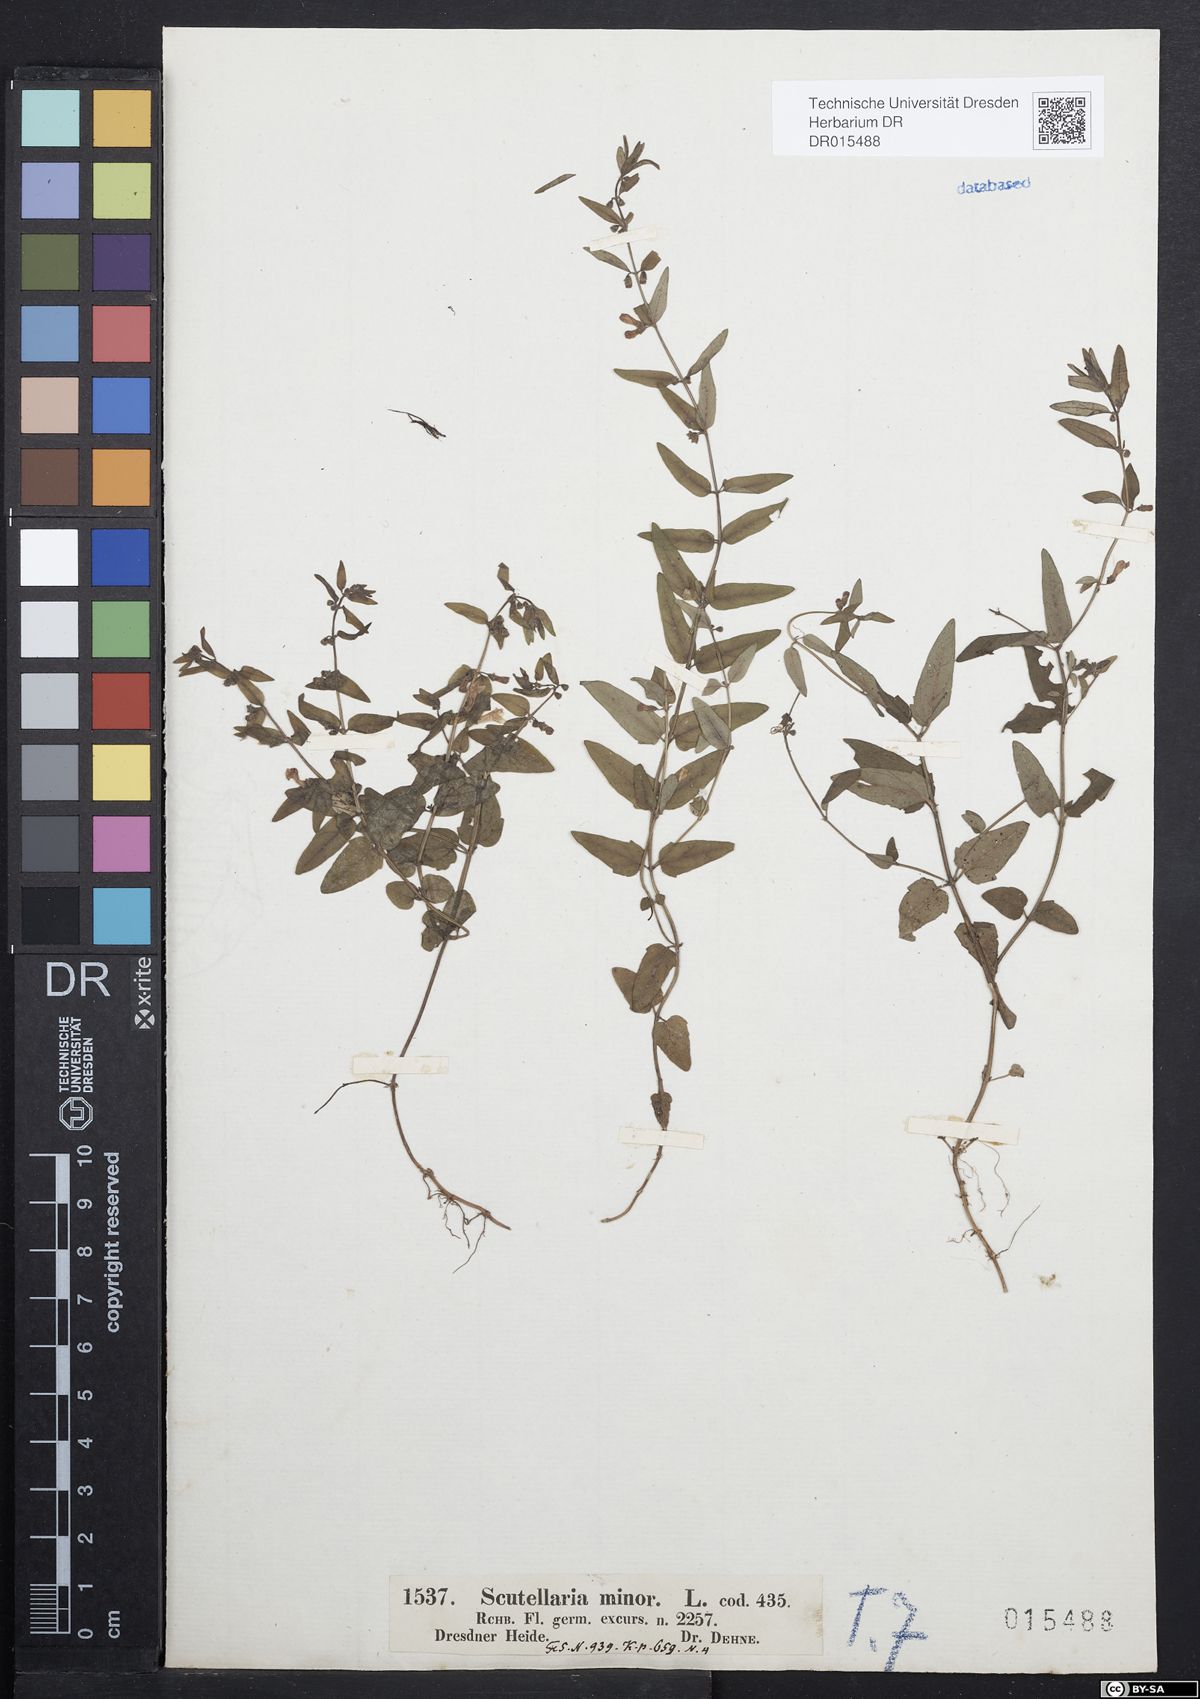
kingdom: Plantae
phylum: Tracheophyta
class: Magnoliopsida
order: Lamiales
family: Lamiaceae
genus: Scutellaria
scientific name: Scutellaria minor
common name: Lesser skullcap
